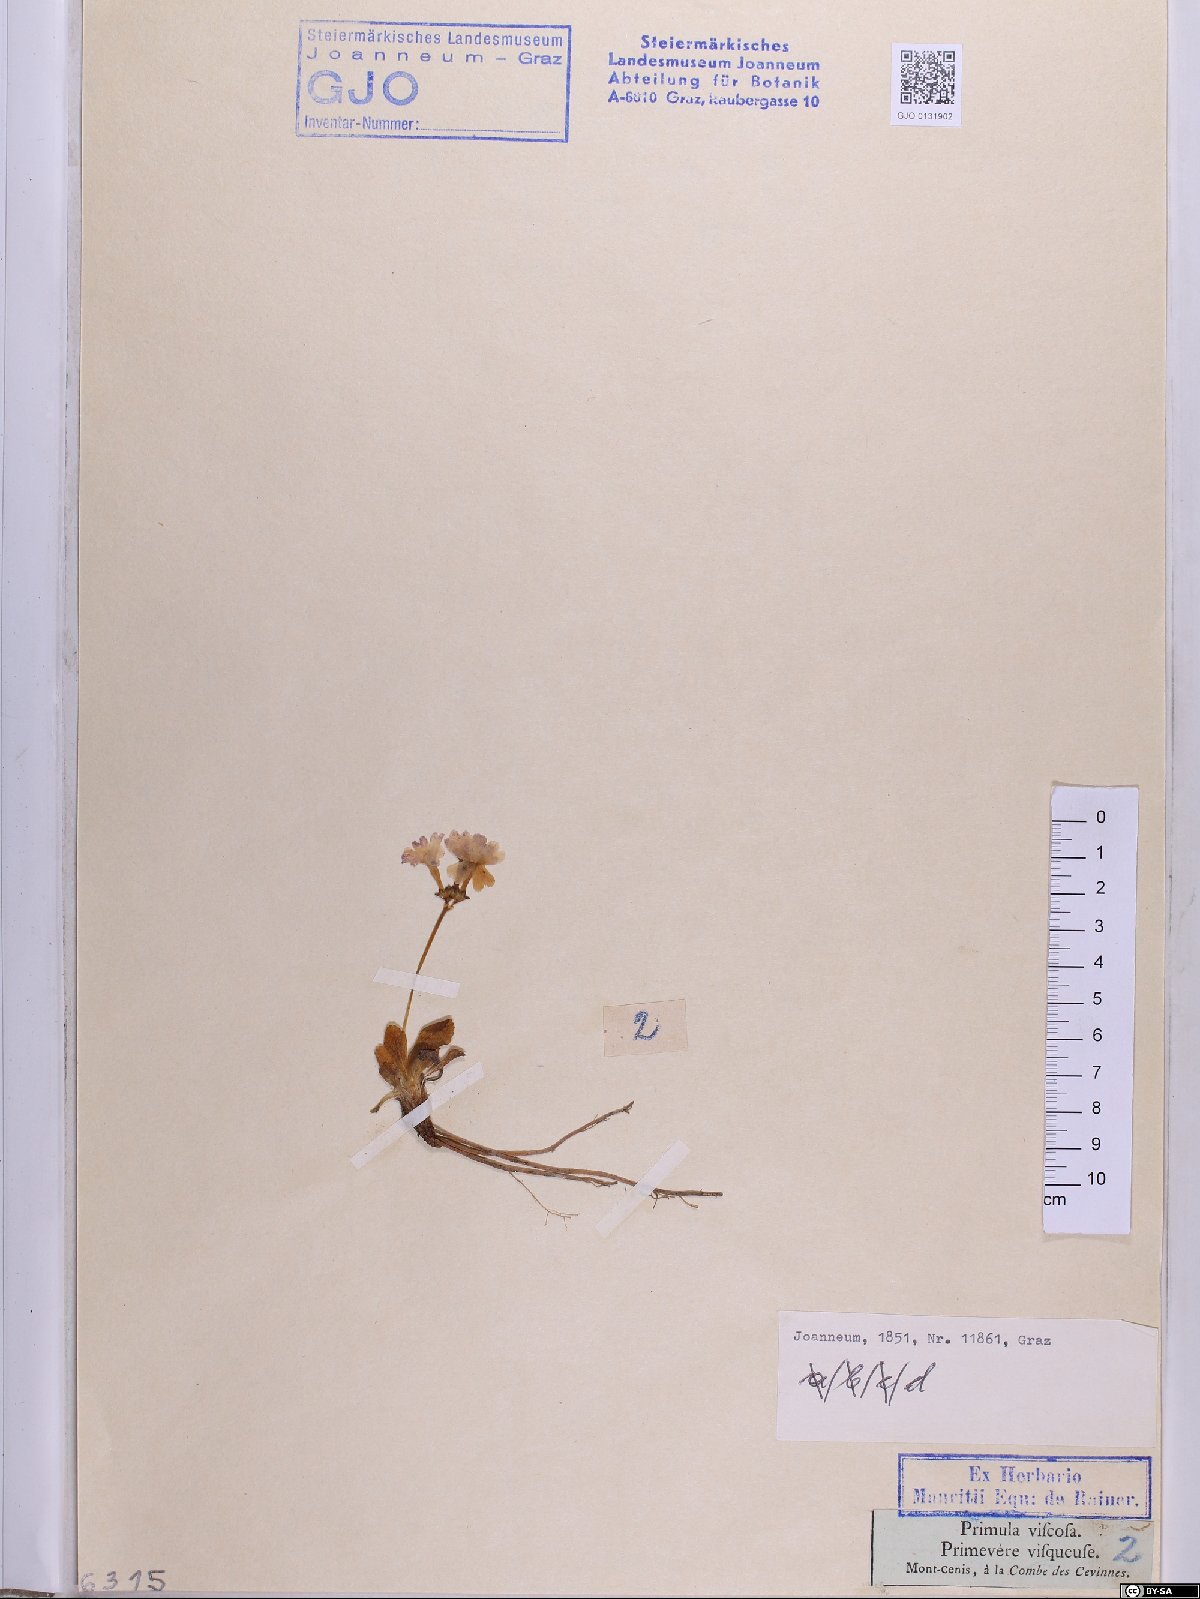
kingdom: Plantae
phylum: Tracheophyta
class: Magnoliopsida
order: Ericales
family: Primulaceae
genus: Primula
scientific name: Primula latifolia
